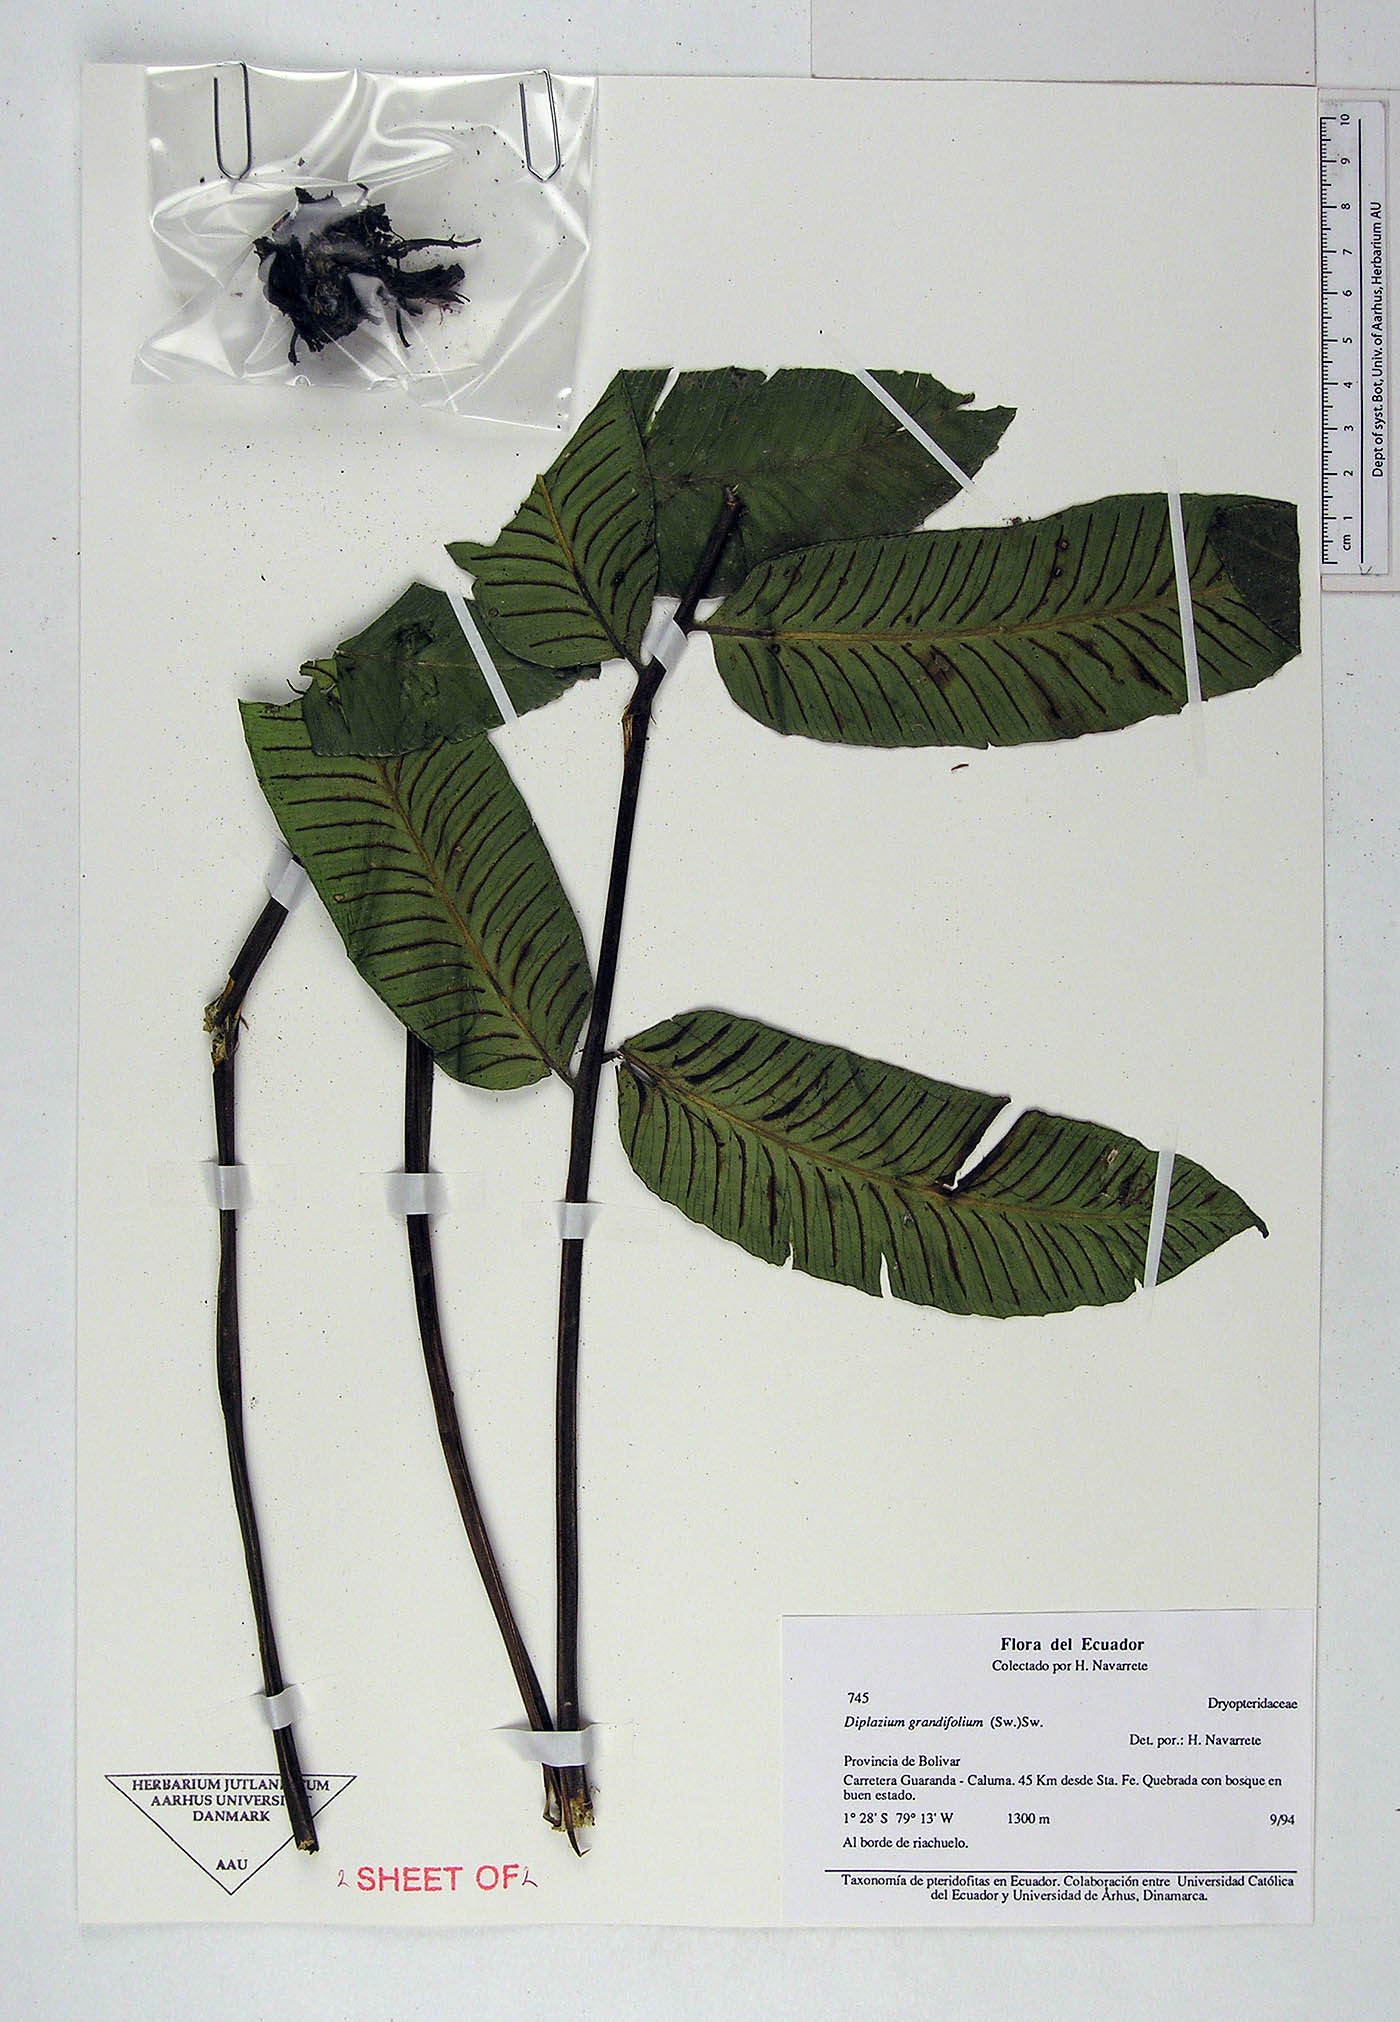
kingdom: Plantae
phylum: Tracheophyta
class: Polypodiopsida
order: Polypodiales
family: Athyriaceae
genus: Diplazium
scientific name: Diplazium
